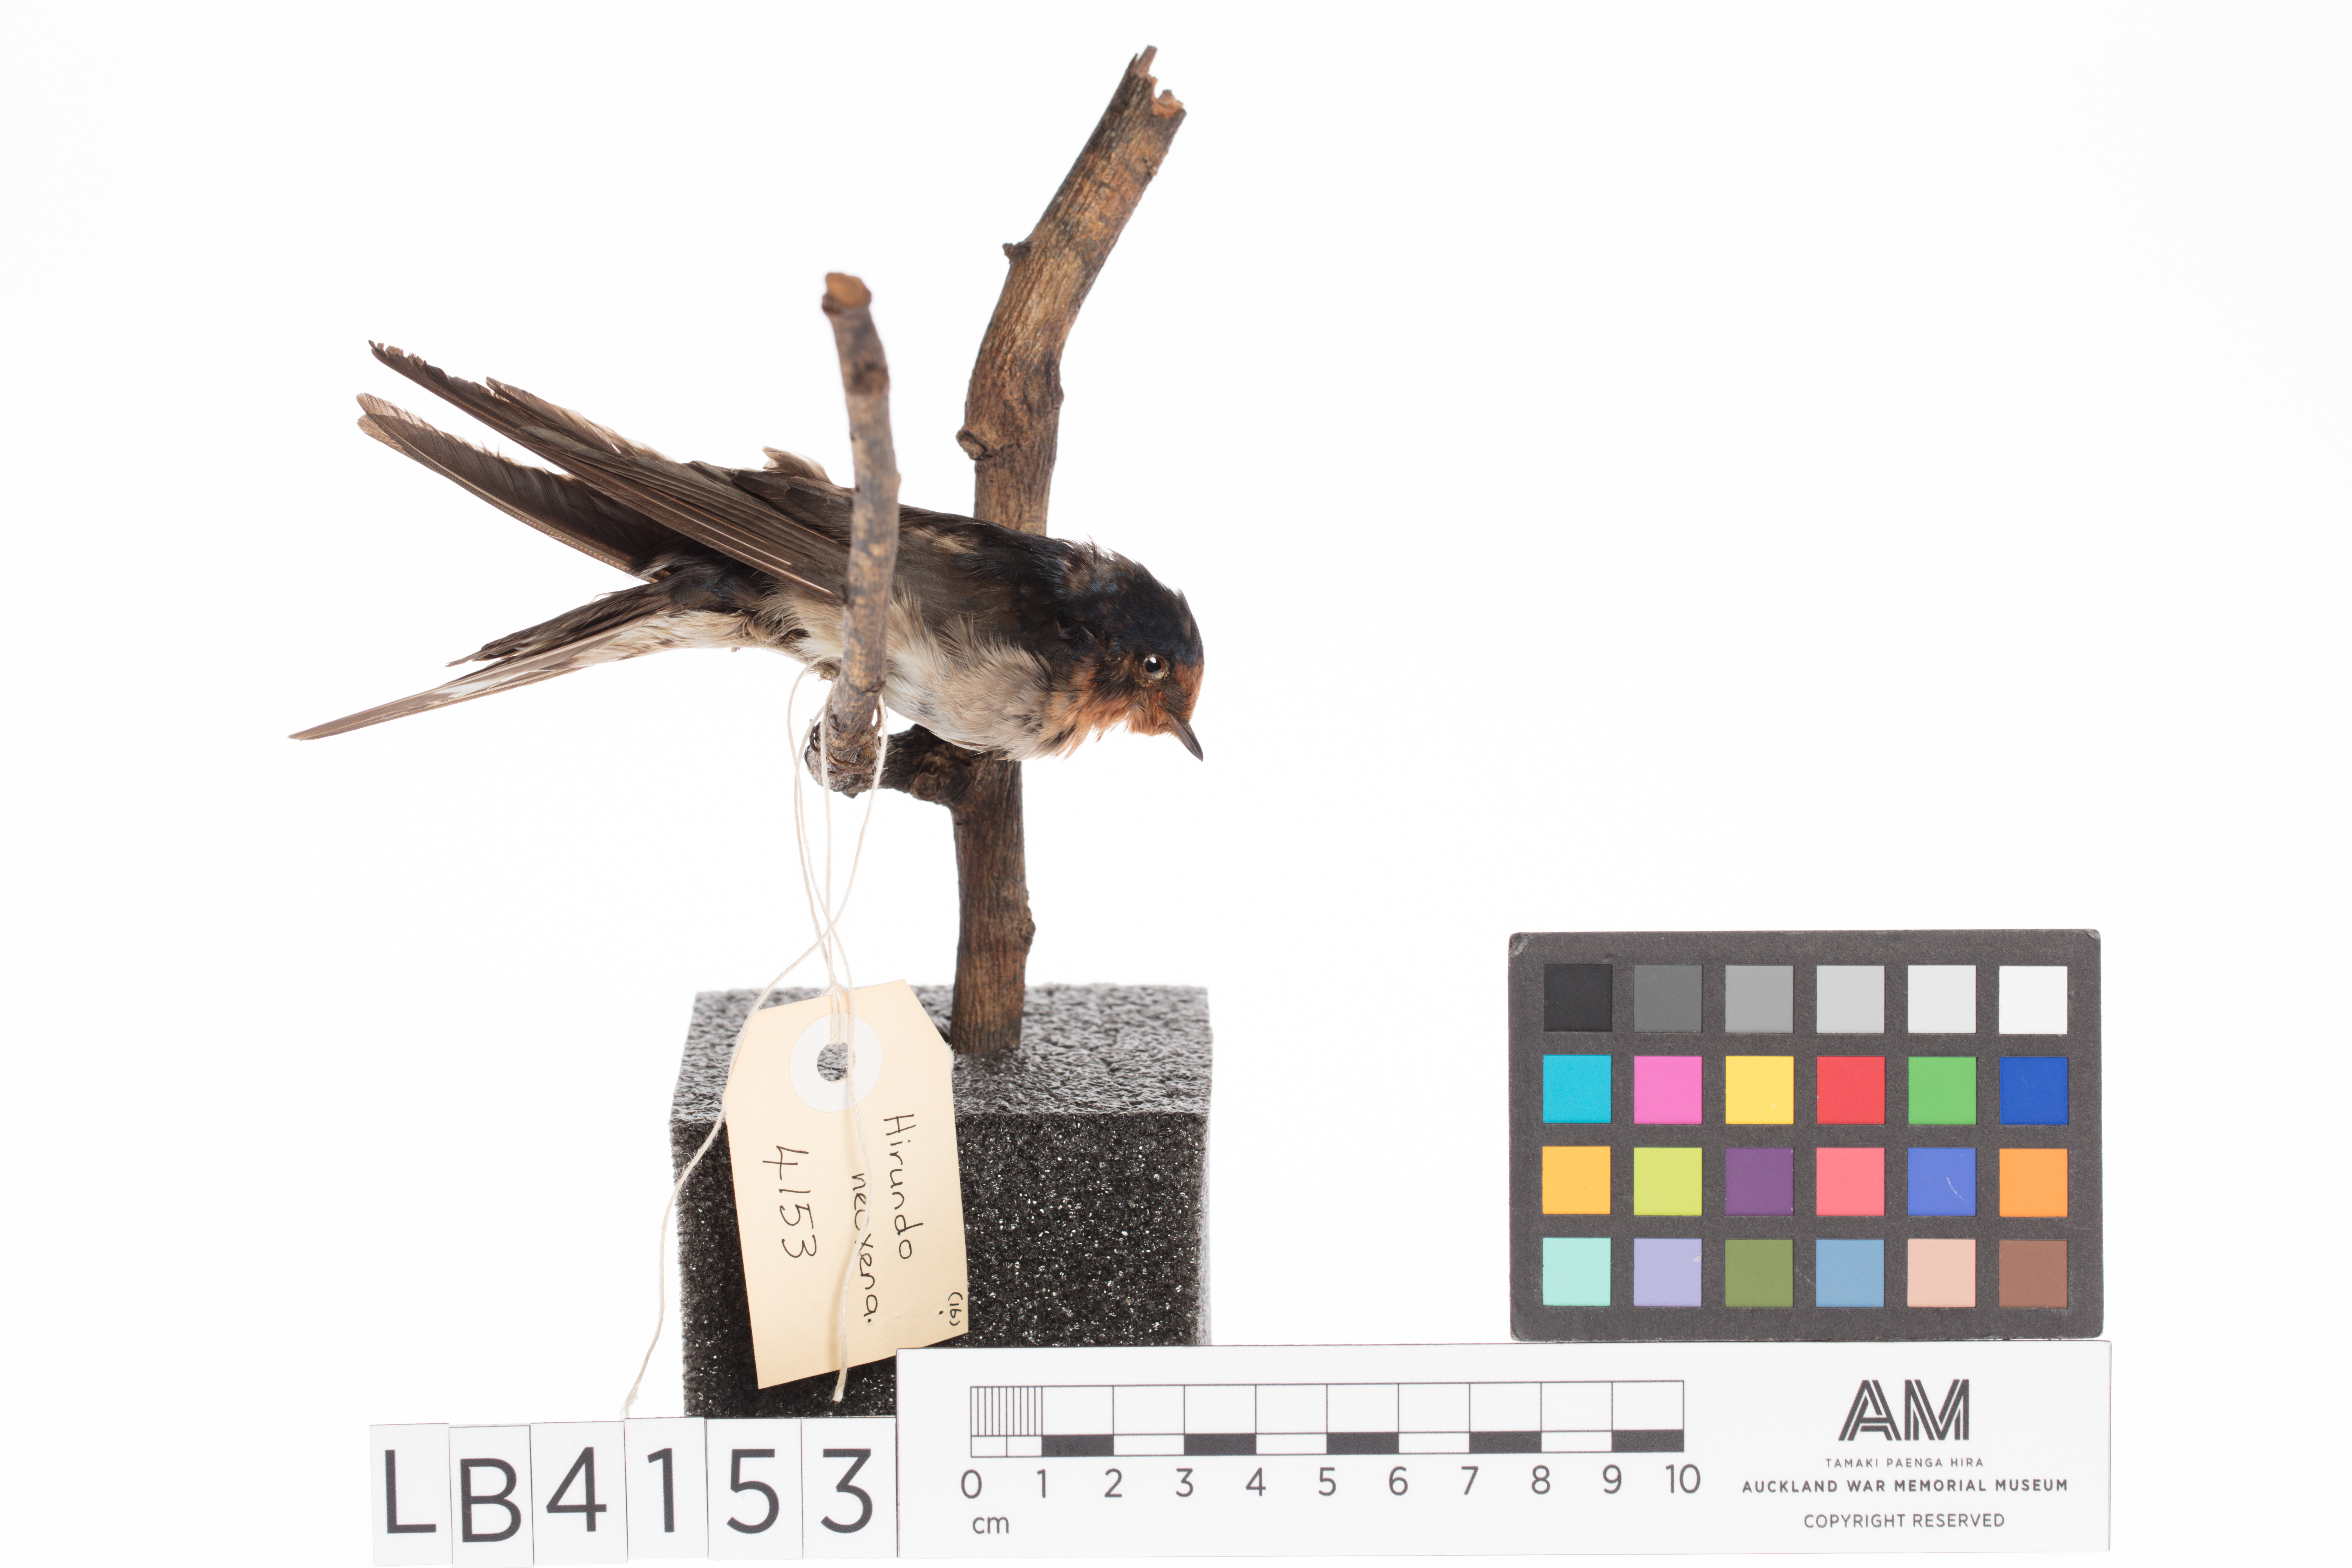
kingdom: Animalia
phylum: Chordata
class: Aves
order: Passeriformes
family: Hirundinidae
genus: Hirundo
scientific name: Hirundo neoxena
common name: Welcome swallow
